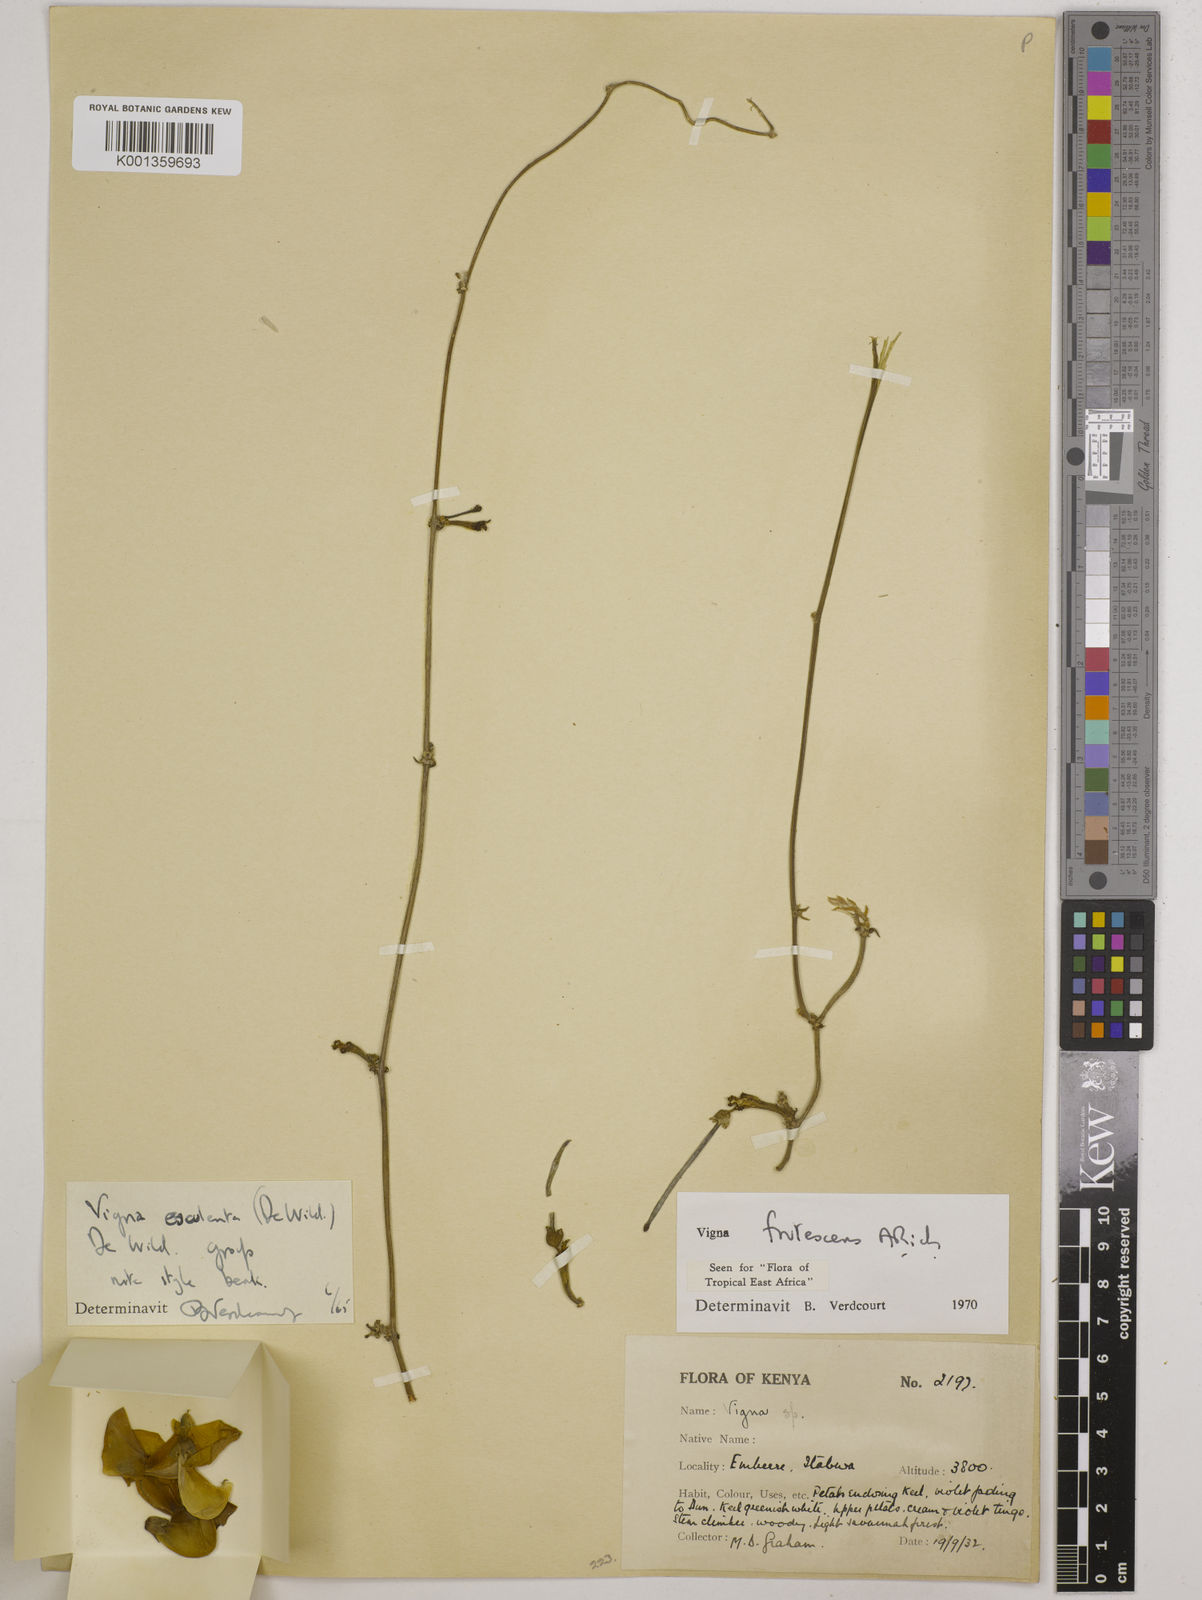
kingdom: Plantae
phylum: Tracheophyta
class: Magnoliopsida
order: Fabales
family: Fabaceae
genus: Vigna
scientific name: Vigna frutescens
